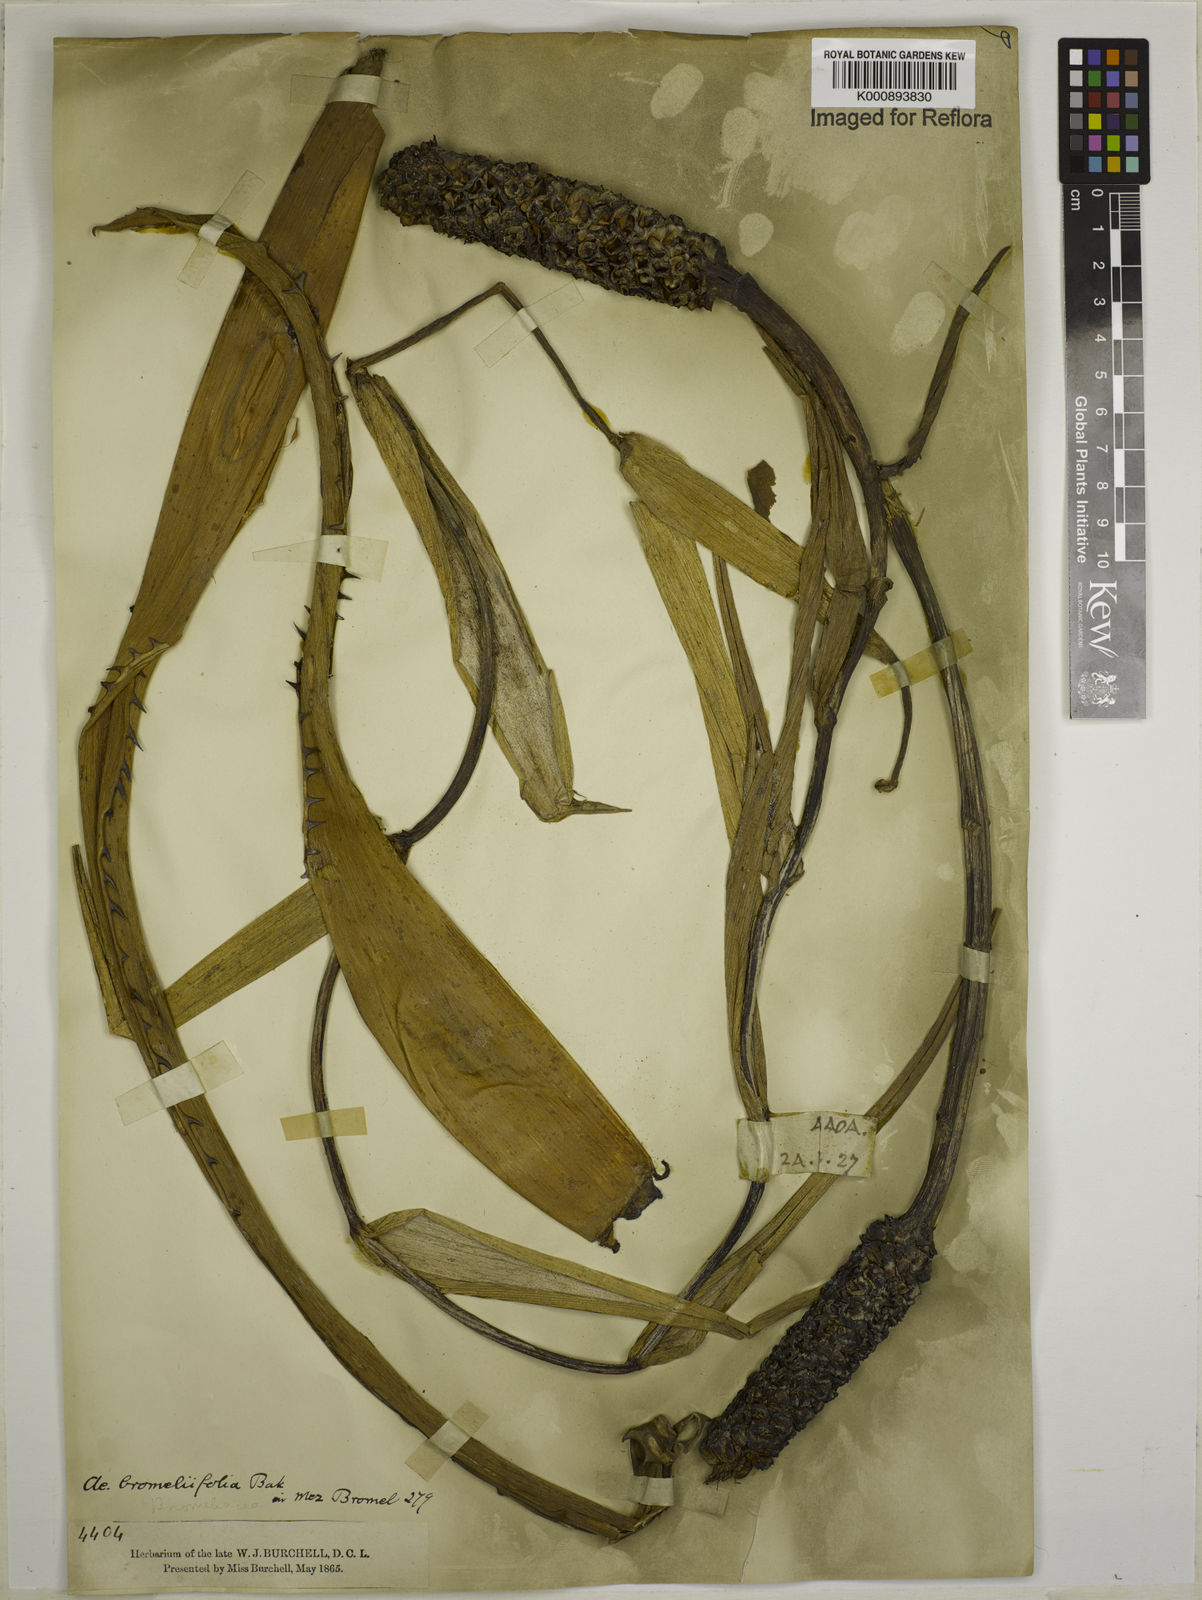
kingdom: Plantae
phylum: Tracheophyta
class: Liliopsida
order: Poales
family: Bromeliaceae
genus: Aechmea
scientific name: Aechmea
